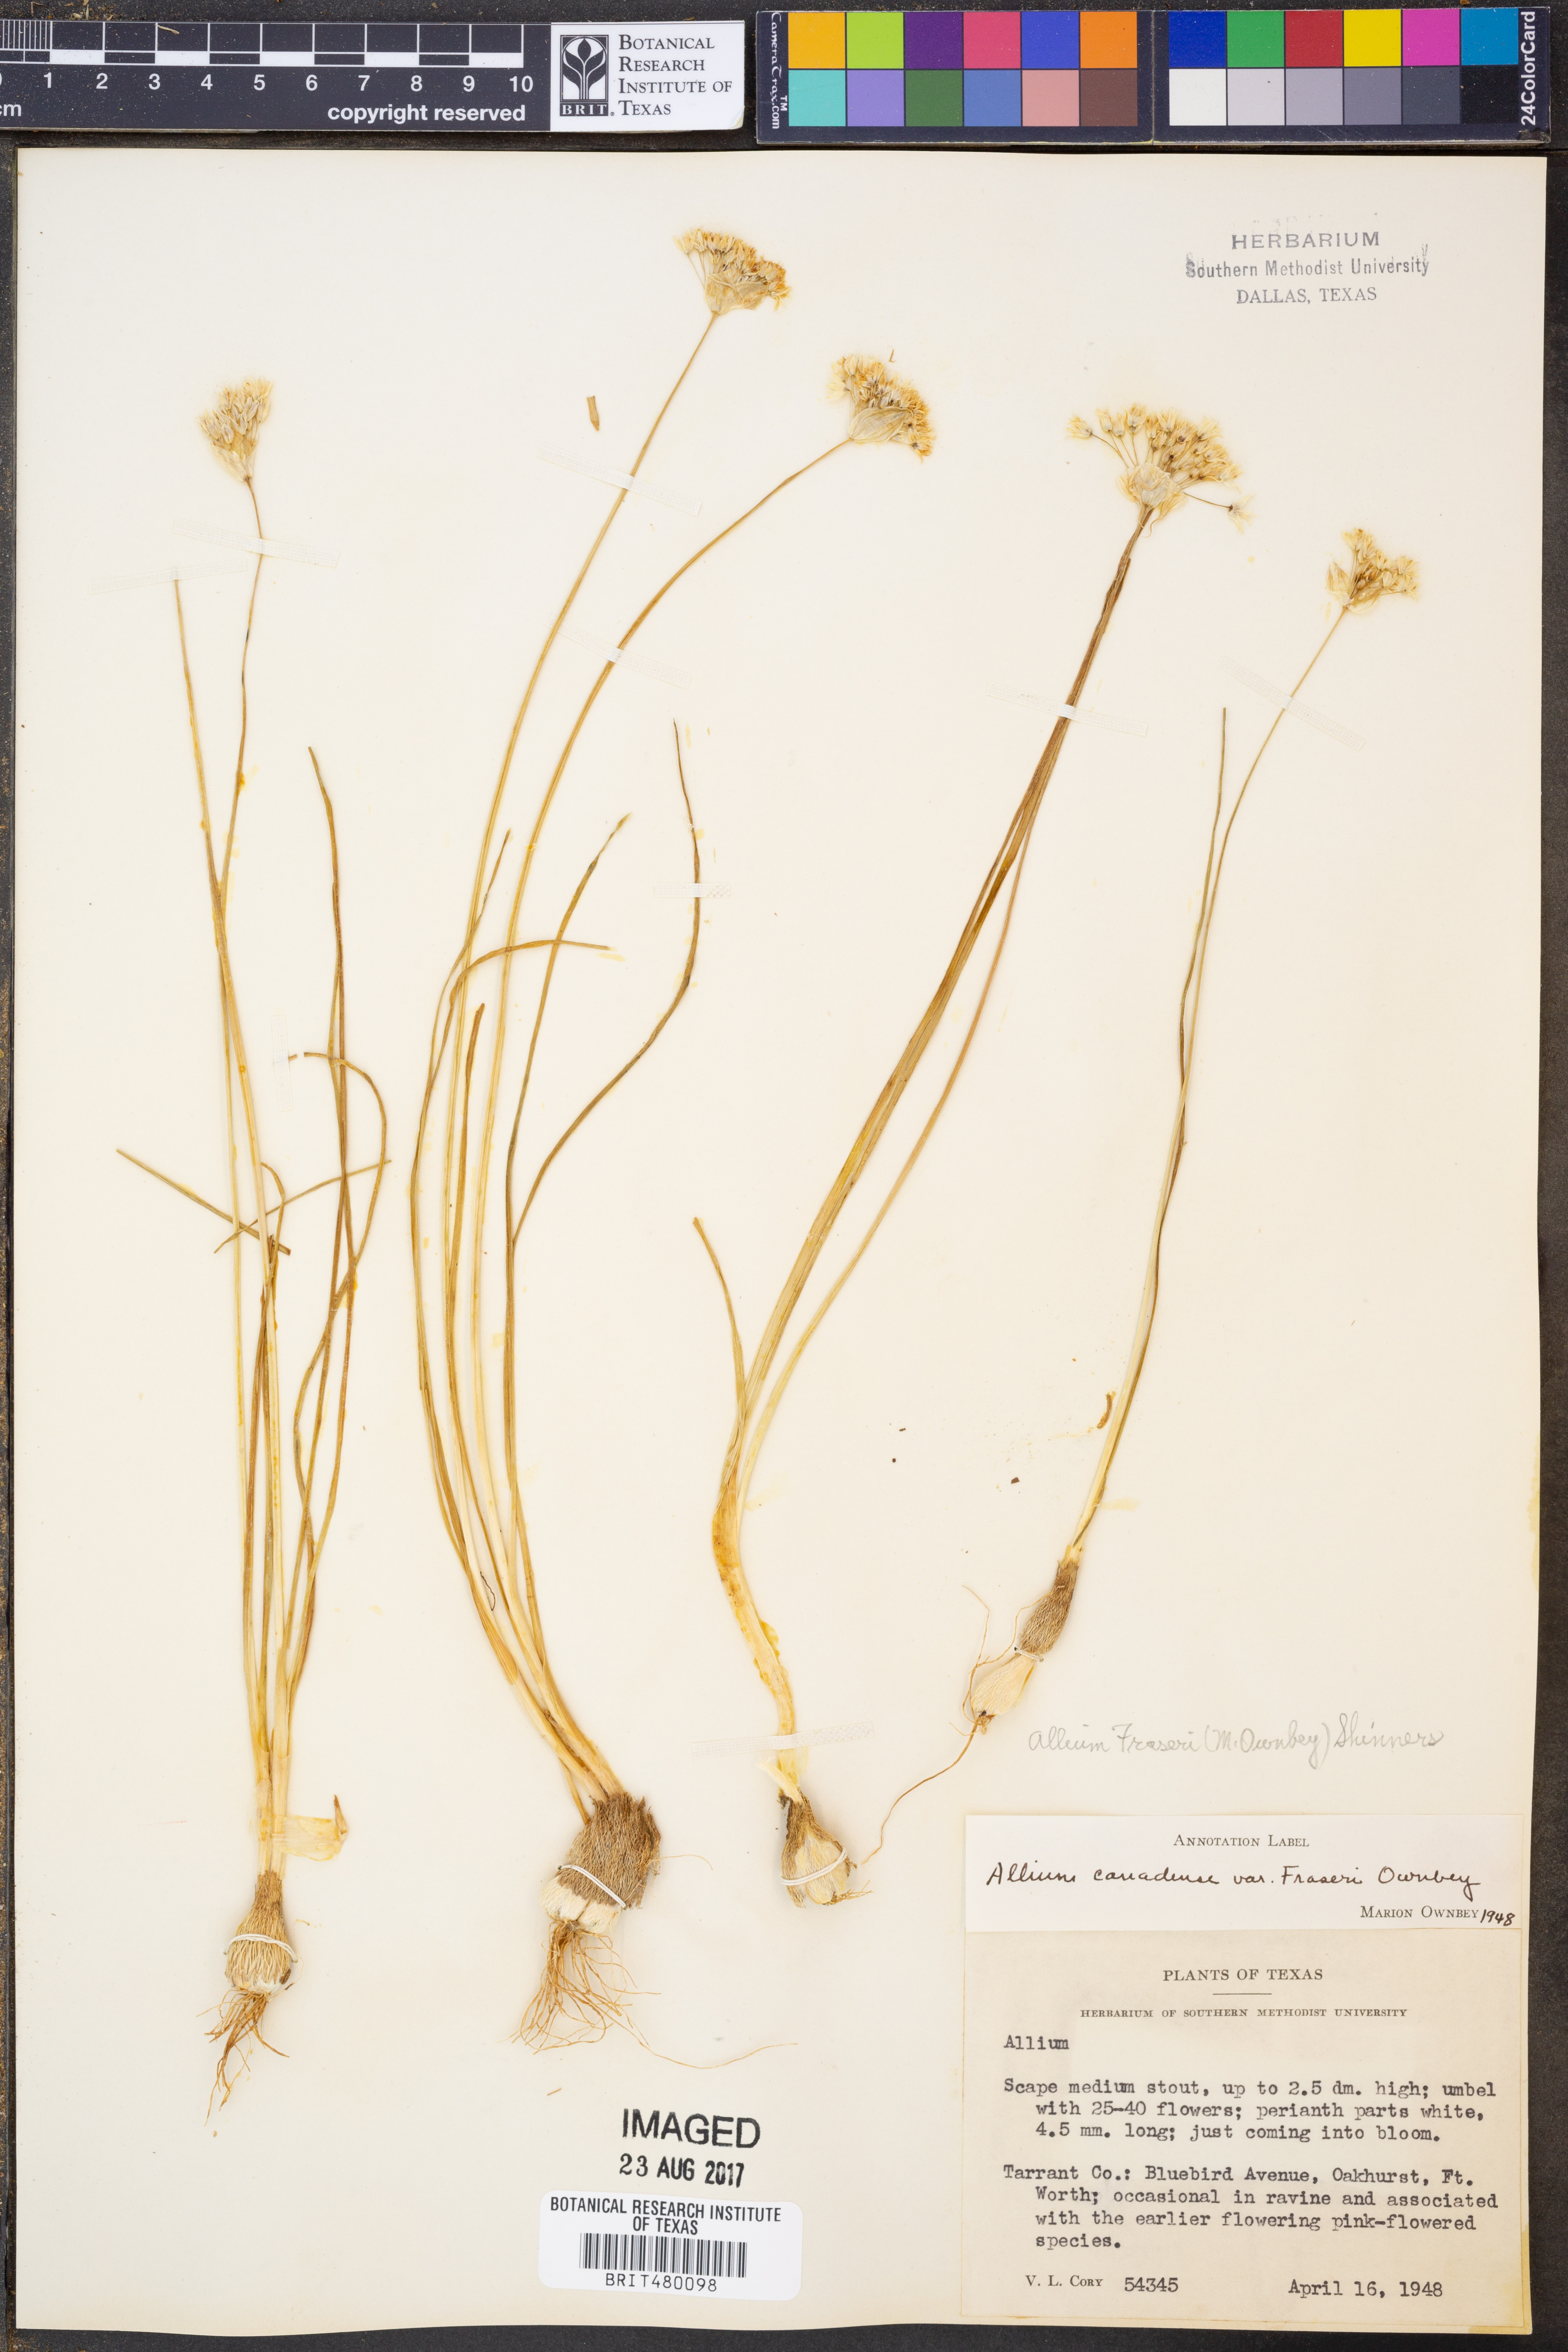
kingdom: Plantae
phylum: Tracheophyta
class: Liliopsida
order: Asparagales
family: Amaryllidaceae
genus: Allium
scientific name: Allium fraseri
